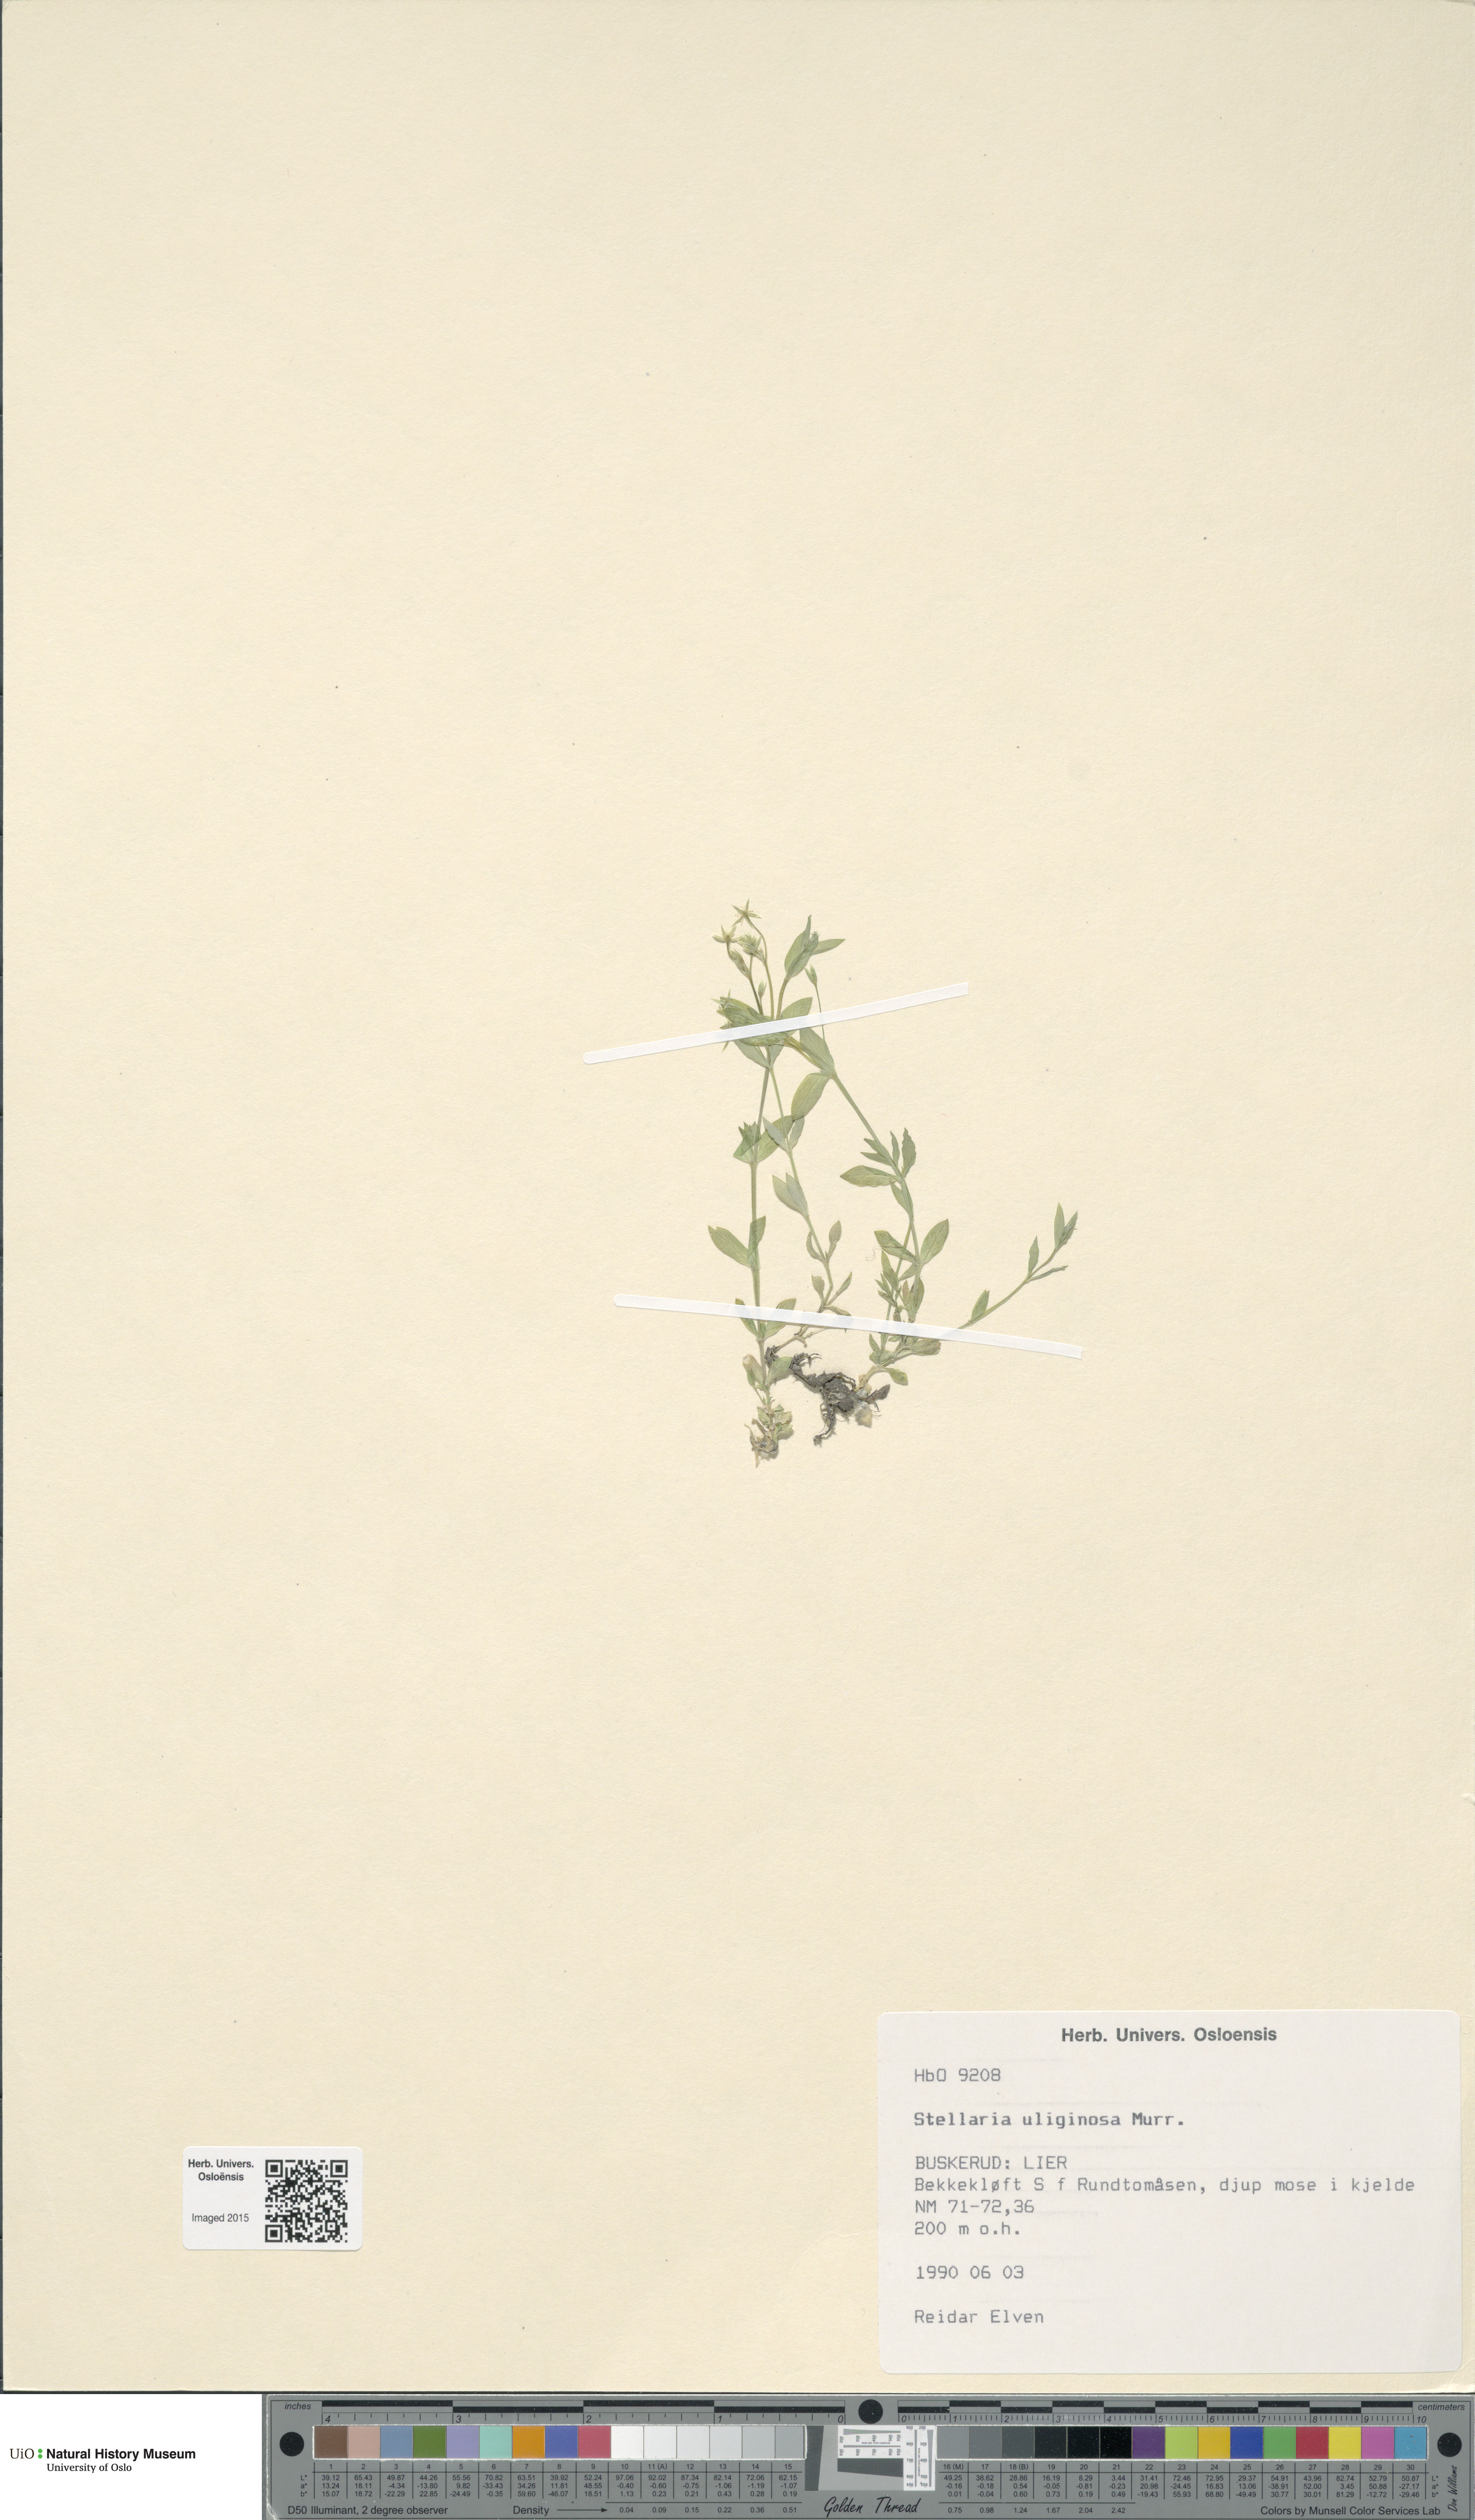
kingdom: Plantae
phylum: Tracheophyta
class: Magnoliopsida
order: Caryophyllales
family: Caryophyllaceae
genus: Stellaria
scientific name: Stellaria alsine
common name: Bog stitchwort
